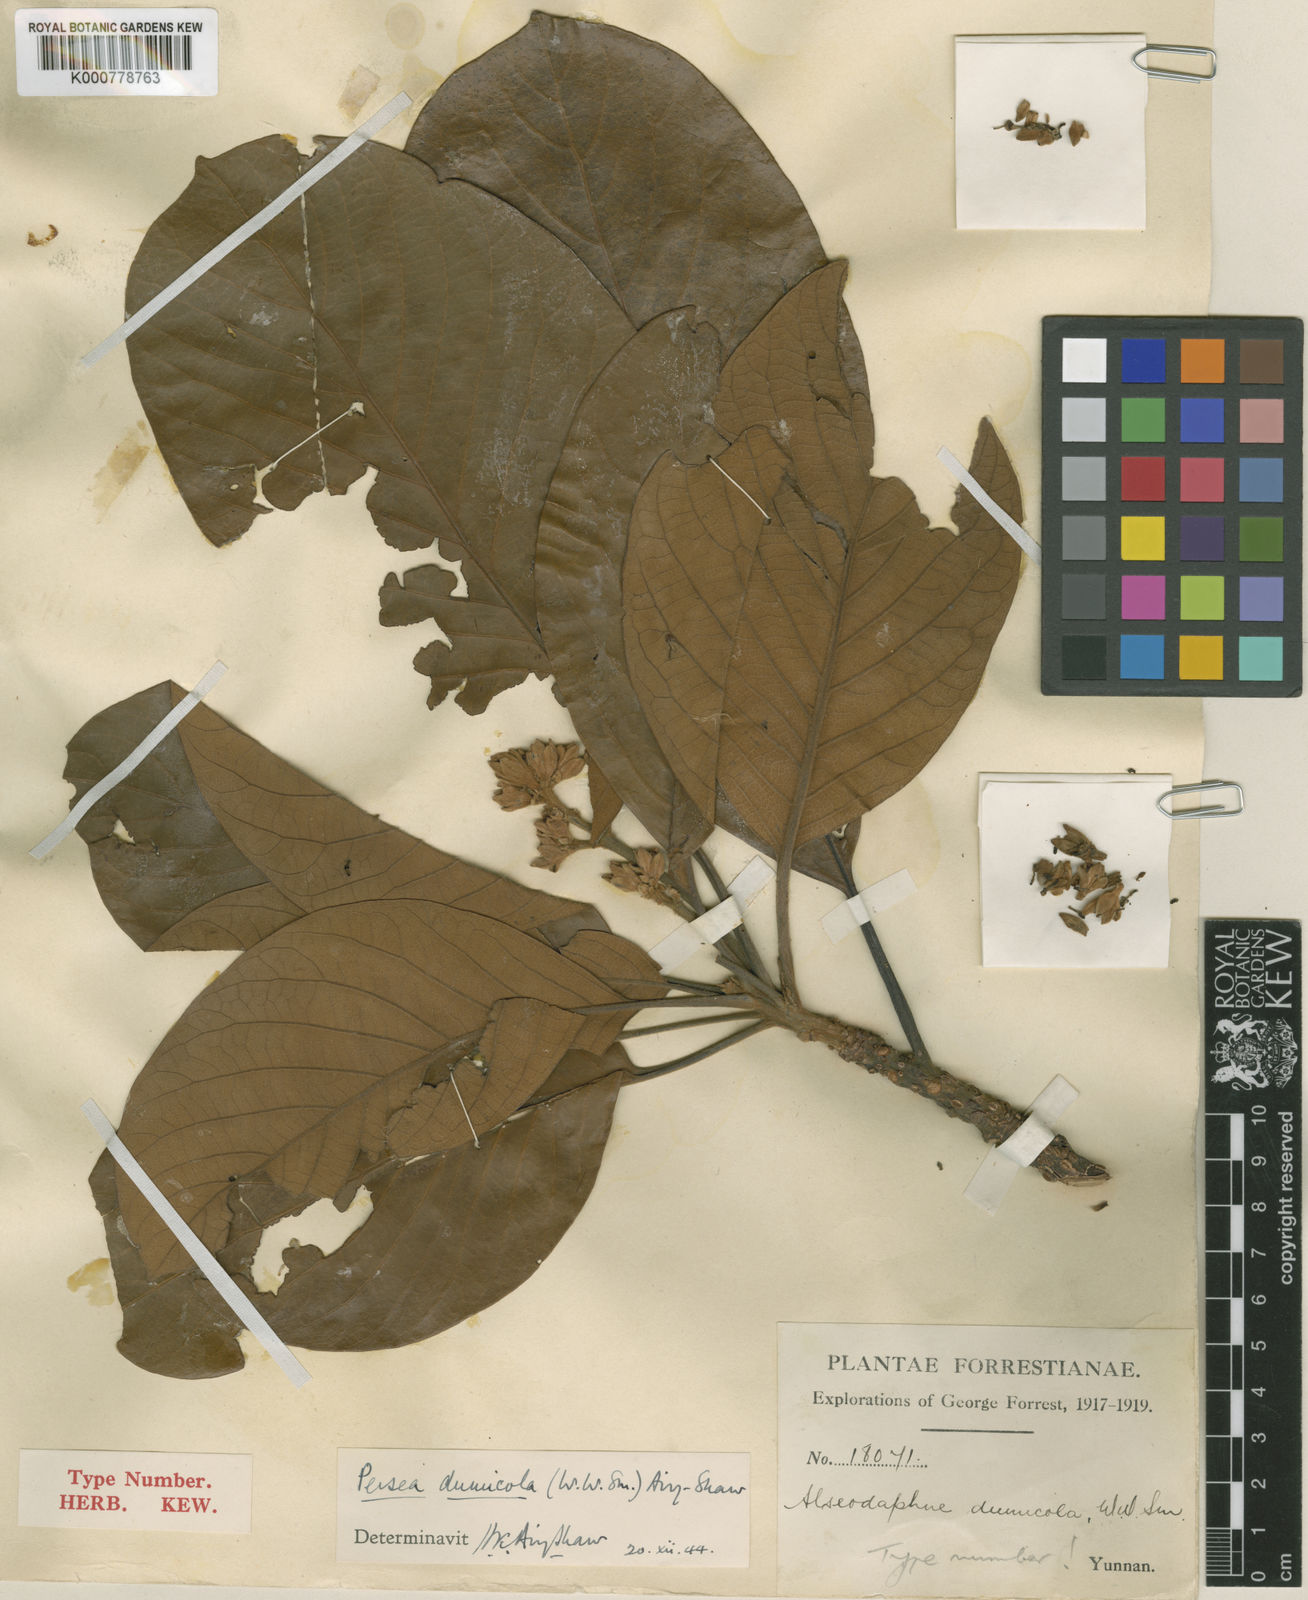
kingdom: Plantae
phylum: Tracheophyta
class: Magnoliopsida
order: Laurales
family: Lauraceae
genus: Machilus
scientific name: Machilus dumicola
